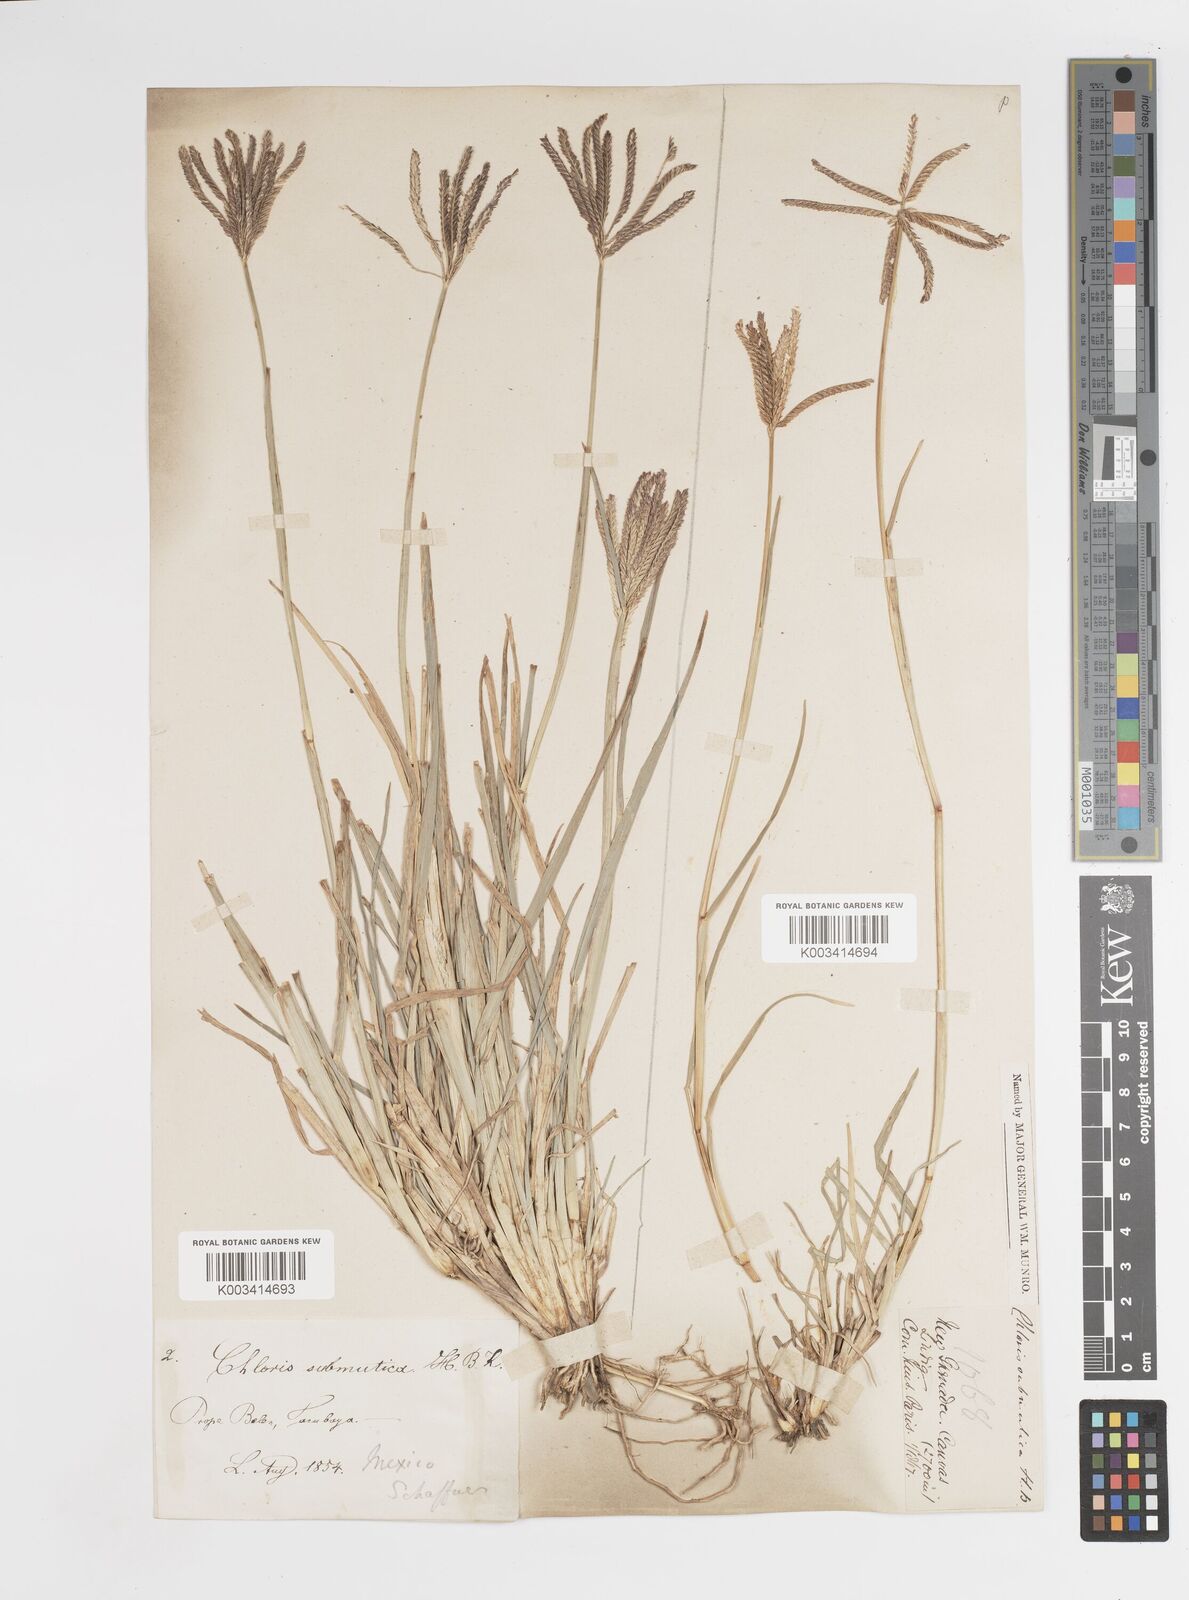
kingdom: Plantae
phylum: Tracheophyta
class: Liliopsida
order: Poales
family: Poaceae
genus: Chloris
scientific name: Chloris submutica
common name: Mexican windmill grass
